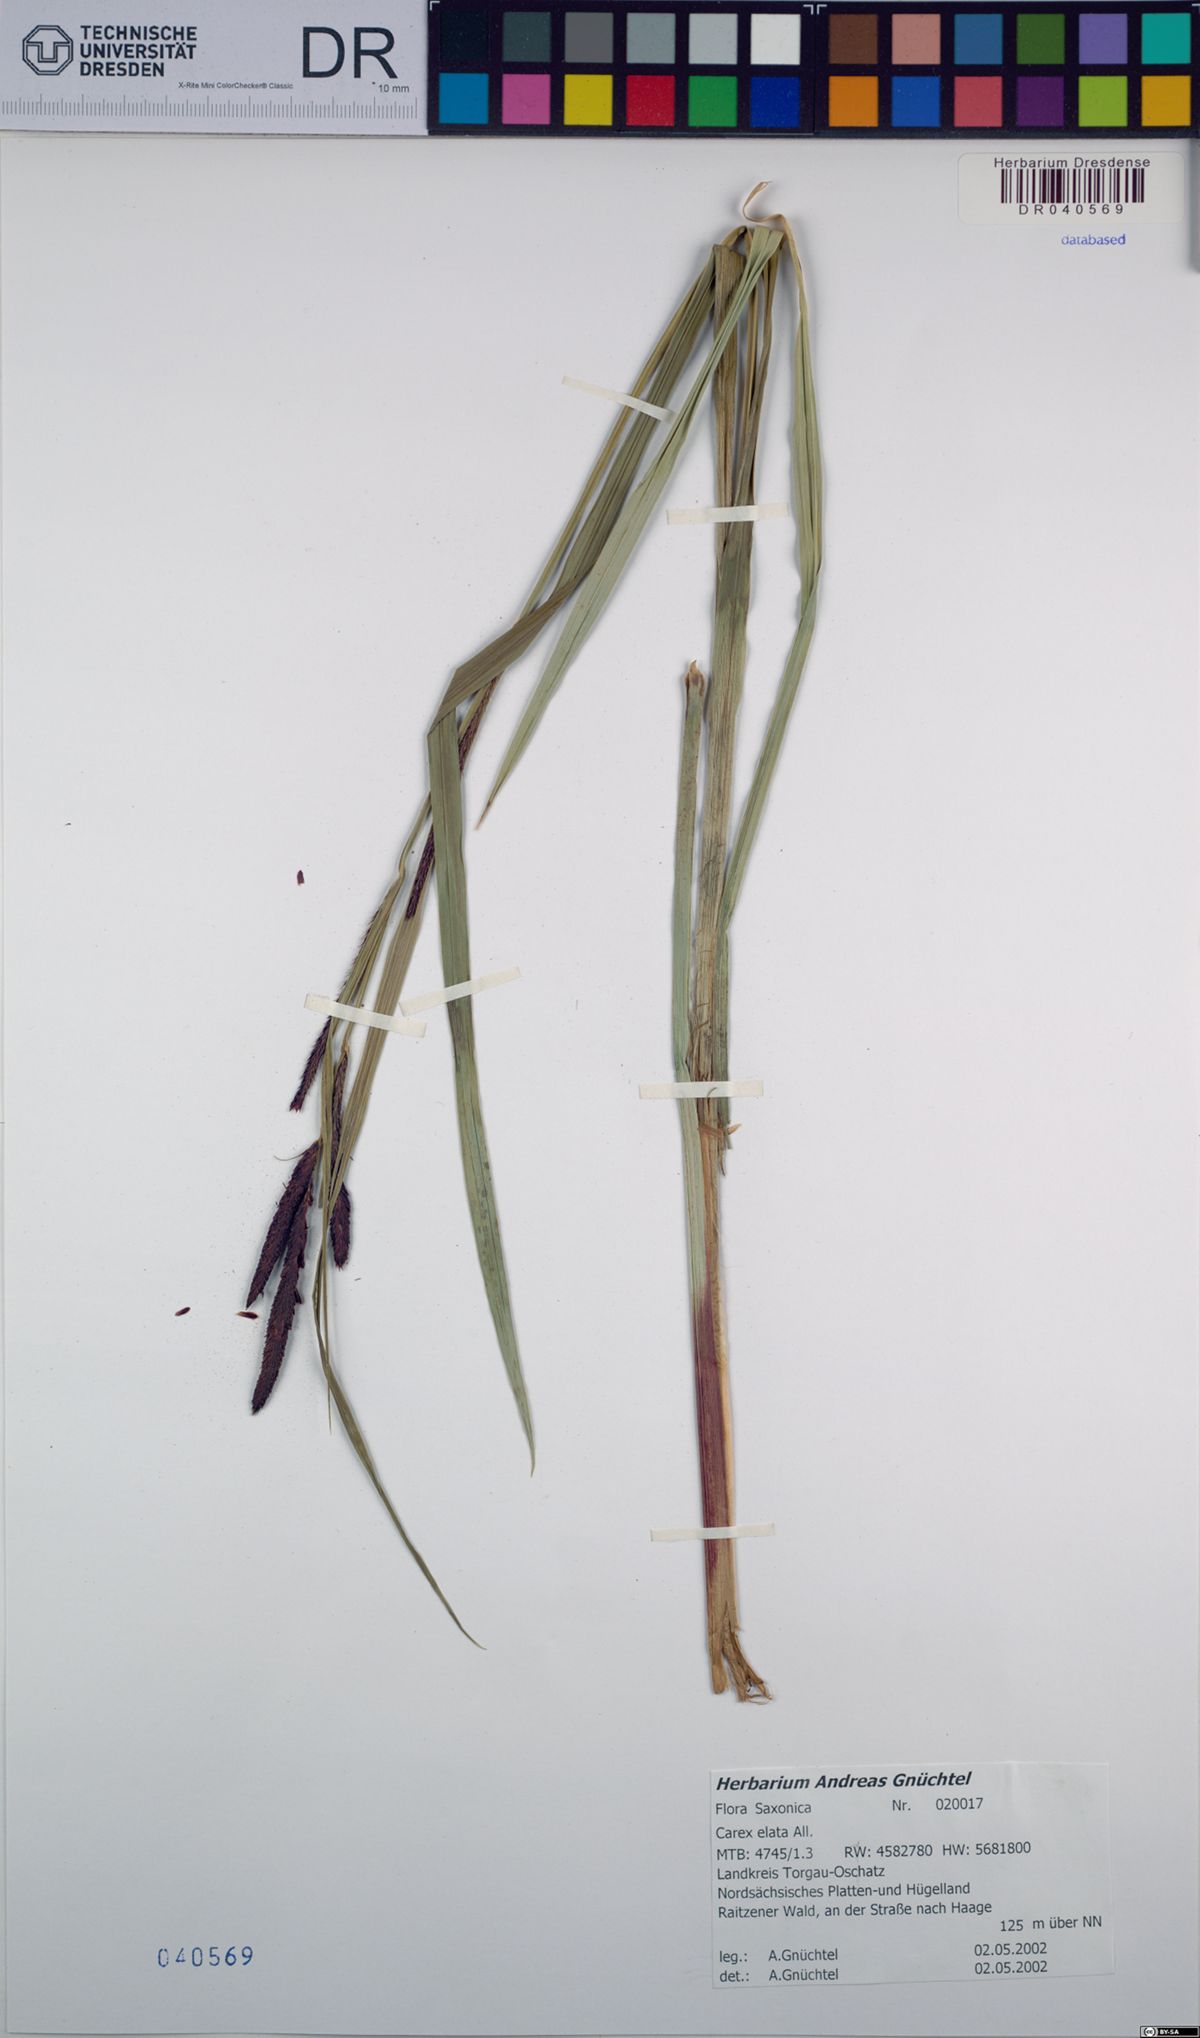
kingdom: Plantae
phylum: Tracheophyta
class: Liliopsida
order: Poales
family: Cyperaceae
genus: Carex
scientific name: Carex elata
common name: Tufted sedge
